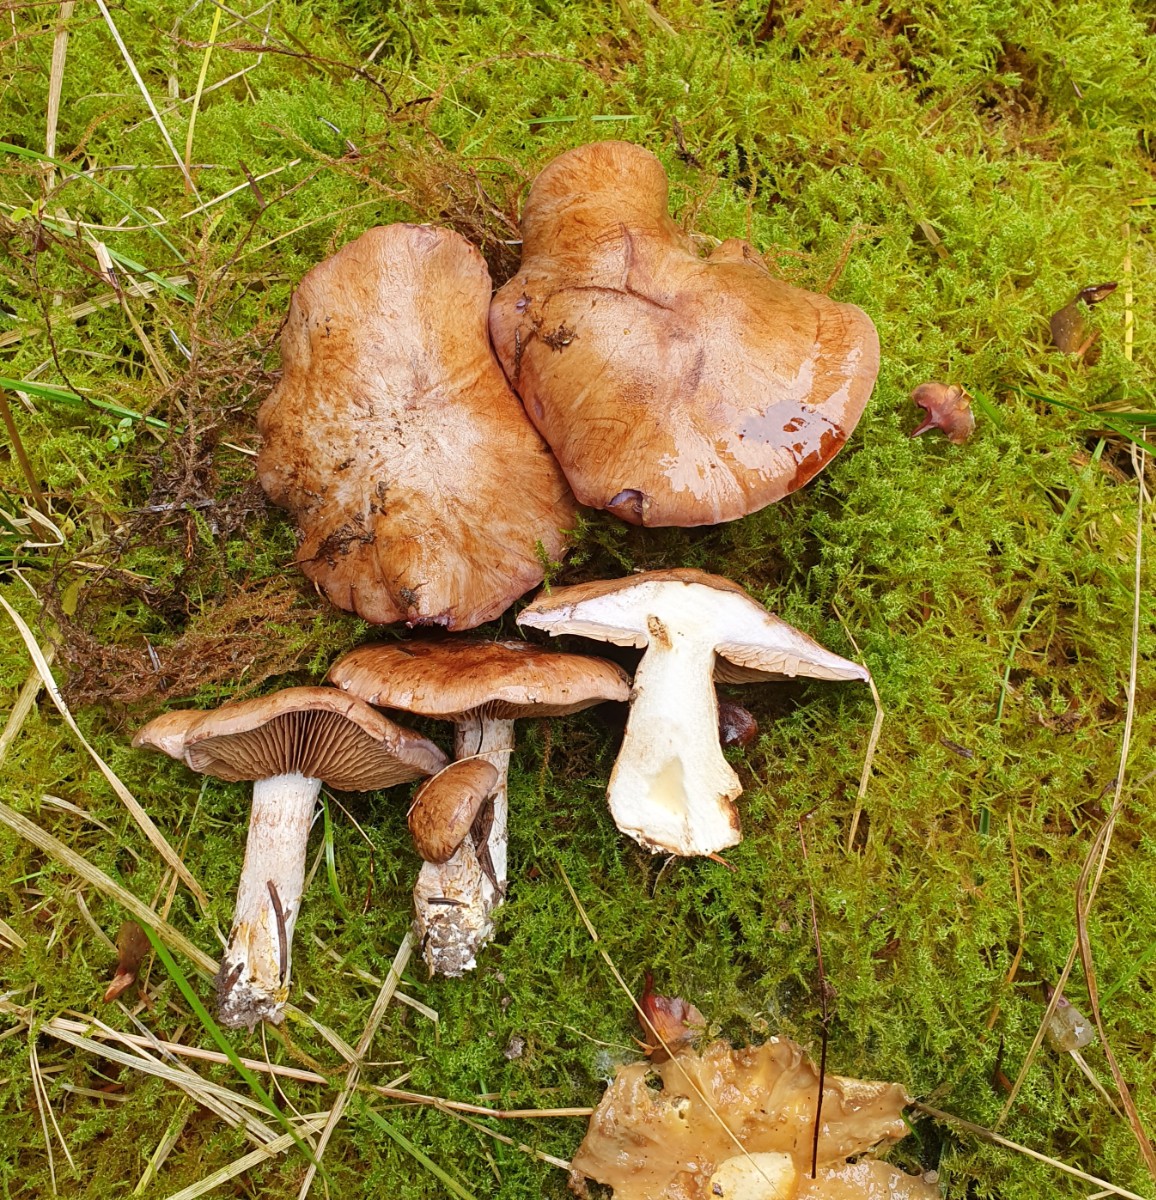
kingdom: Fungi
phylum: Basidiomycota
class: Agaricomycetes
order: Agaricales
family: Cortinariaceae
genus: Phlegmacium
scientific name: Phlegmacium eliae
